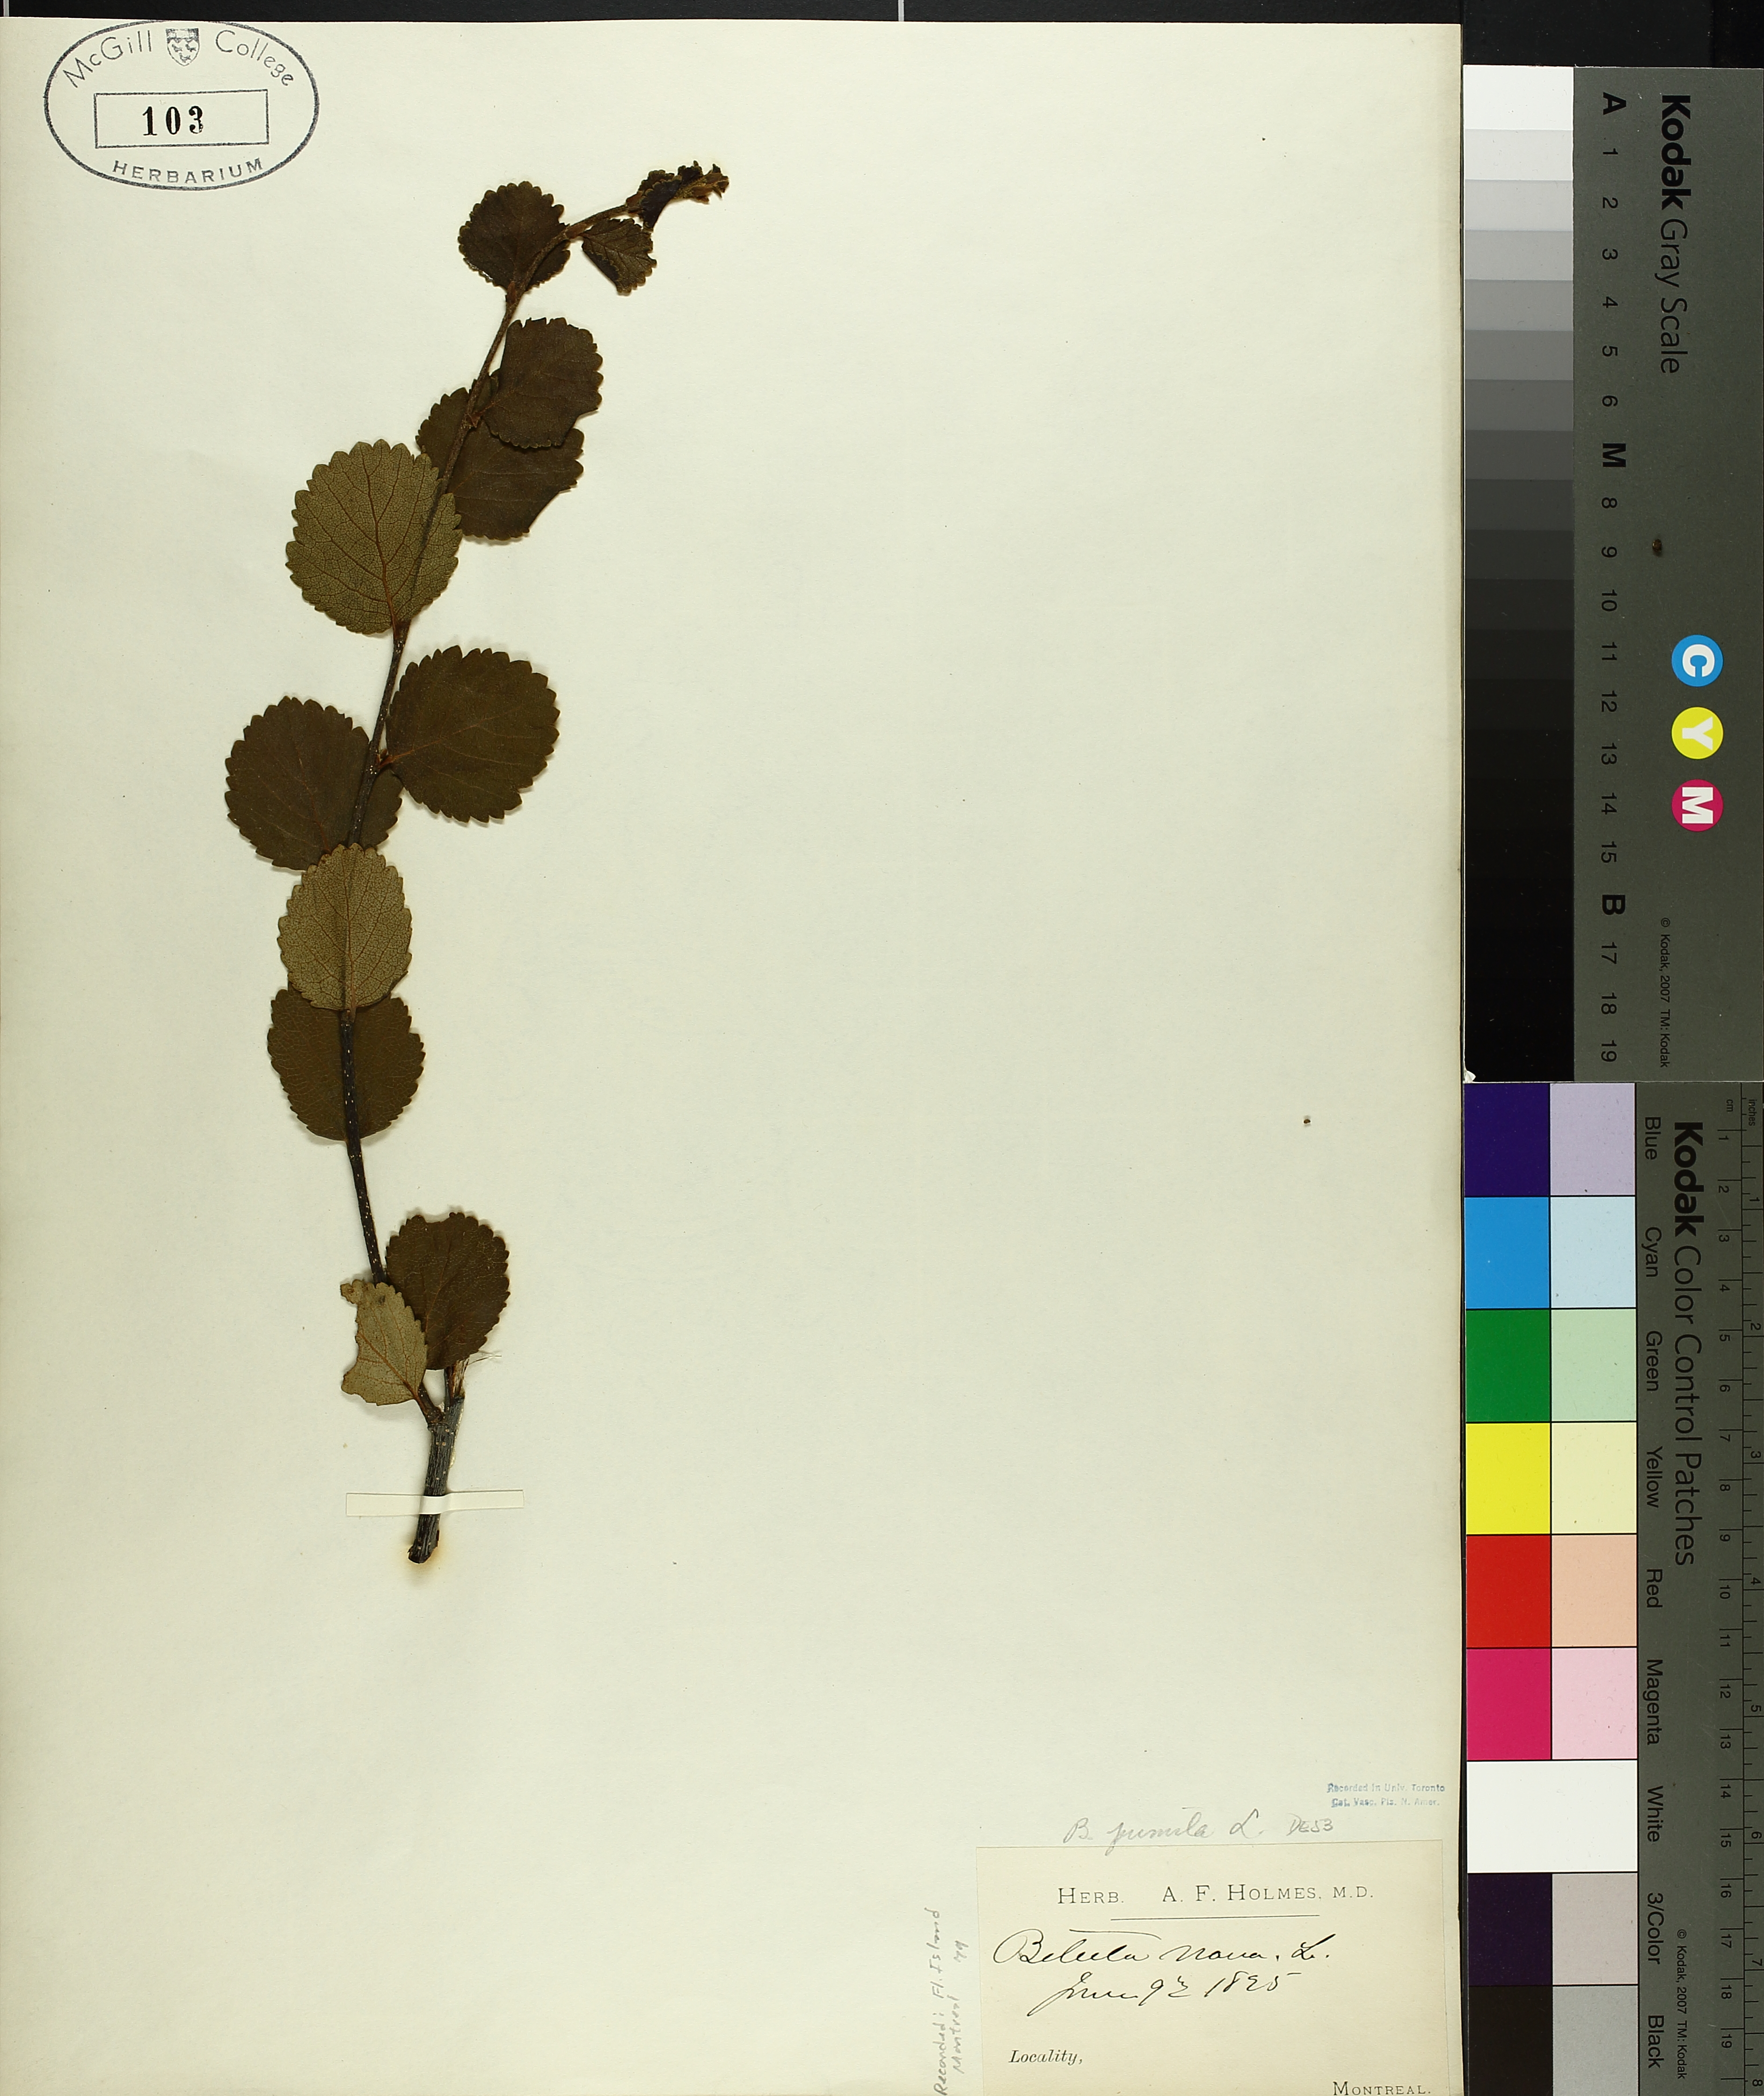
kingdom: Plantae
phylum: Tracheophyta
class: Magnoliopsida
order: Fagales
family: Betulaceae
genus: Betula
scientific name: Betula pumila
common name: Bog birch
